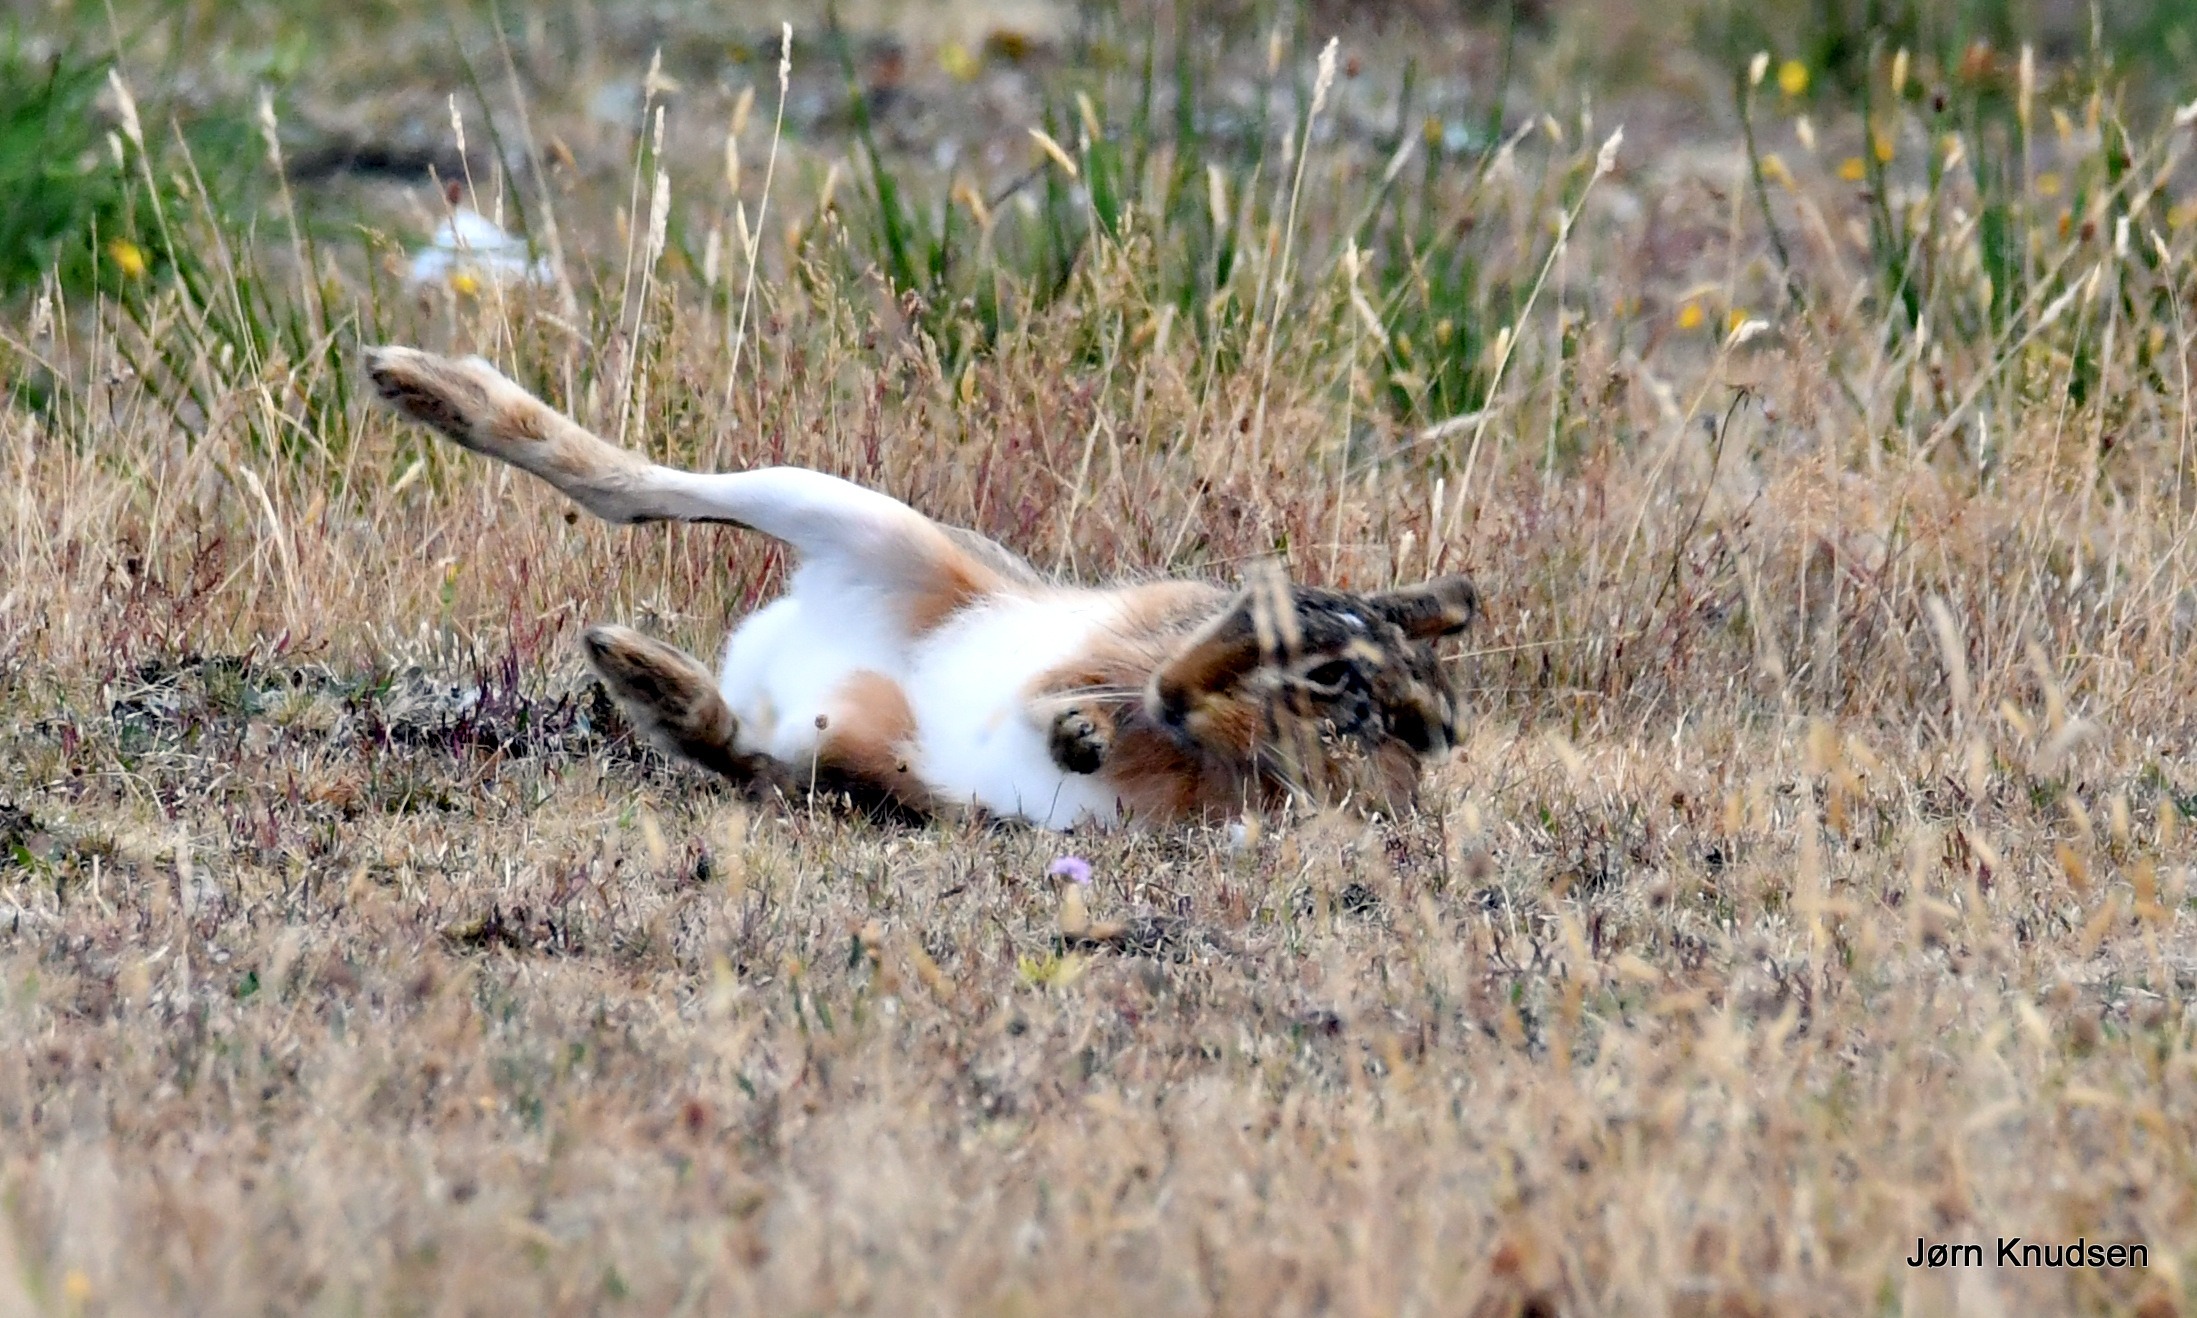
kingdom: Animalia
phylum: Chordata
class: Mammalia
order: Lagomorpha
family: Leporidae
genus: Lepus
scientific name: Lepus europaeus
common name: Hare
